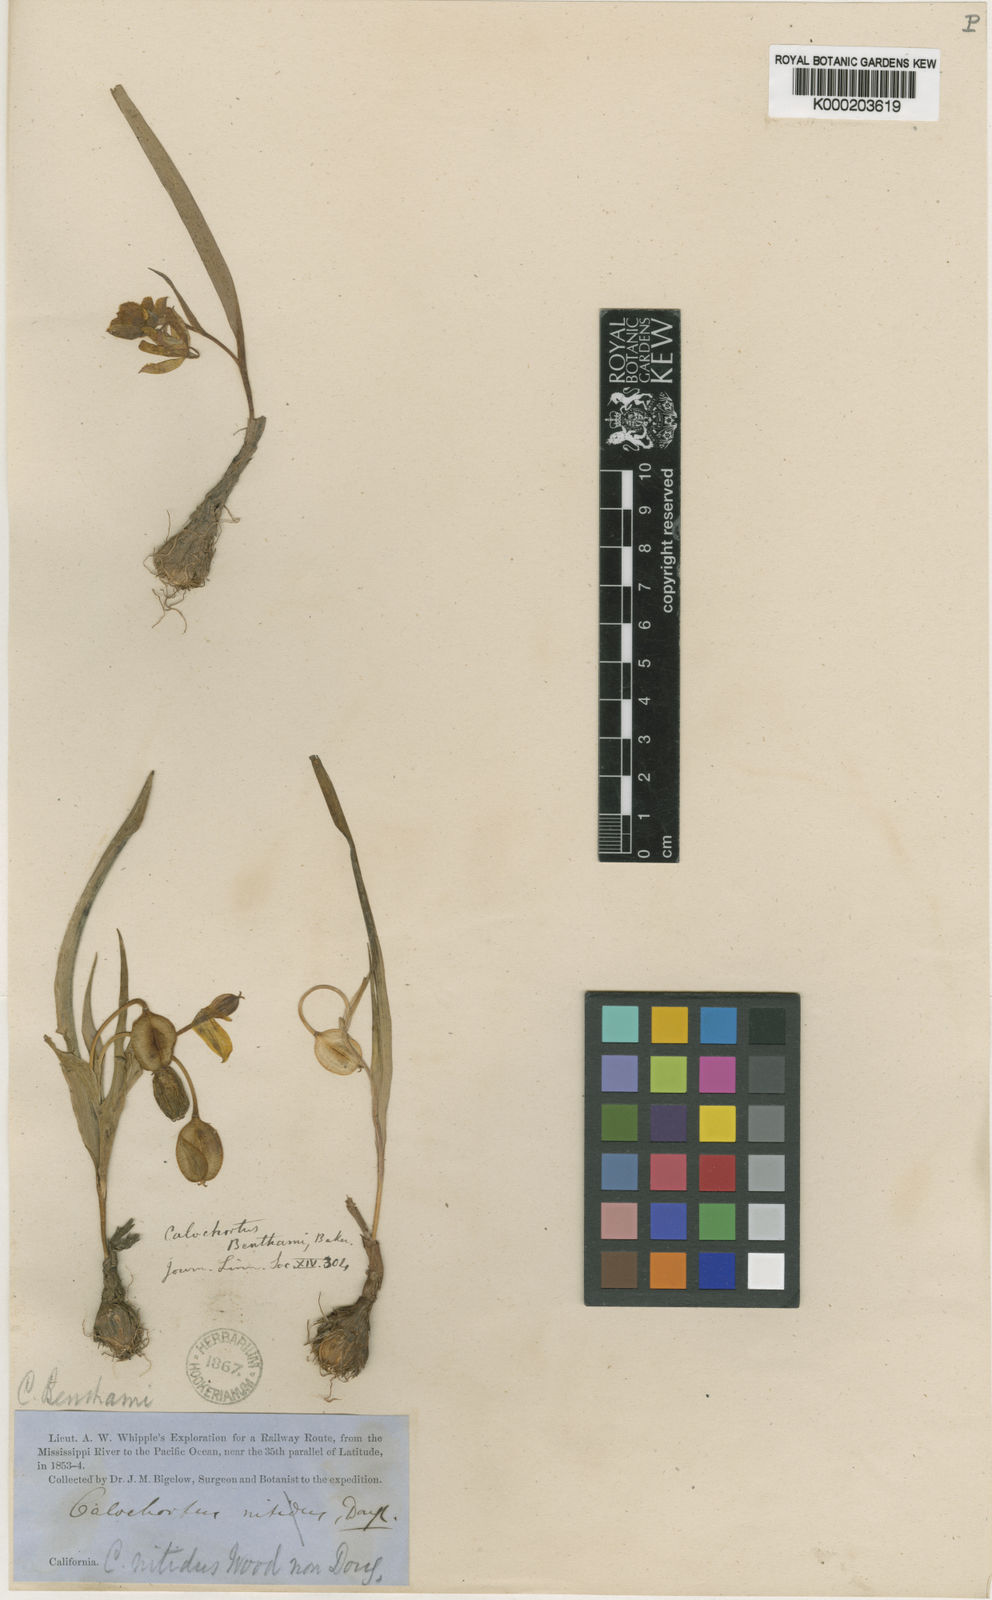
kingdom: Plantae
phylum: Tracheophyta
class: Liliopsida
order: Liliales
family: Liliaceae
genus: Calochortus
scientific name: Calochortus monophyllus
